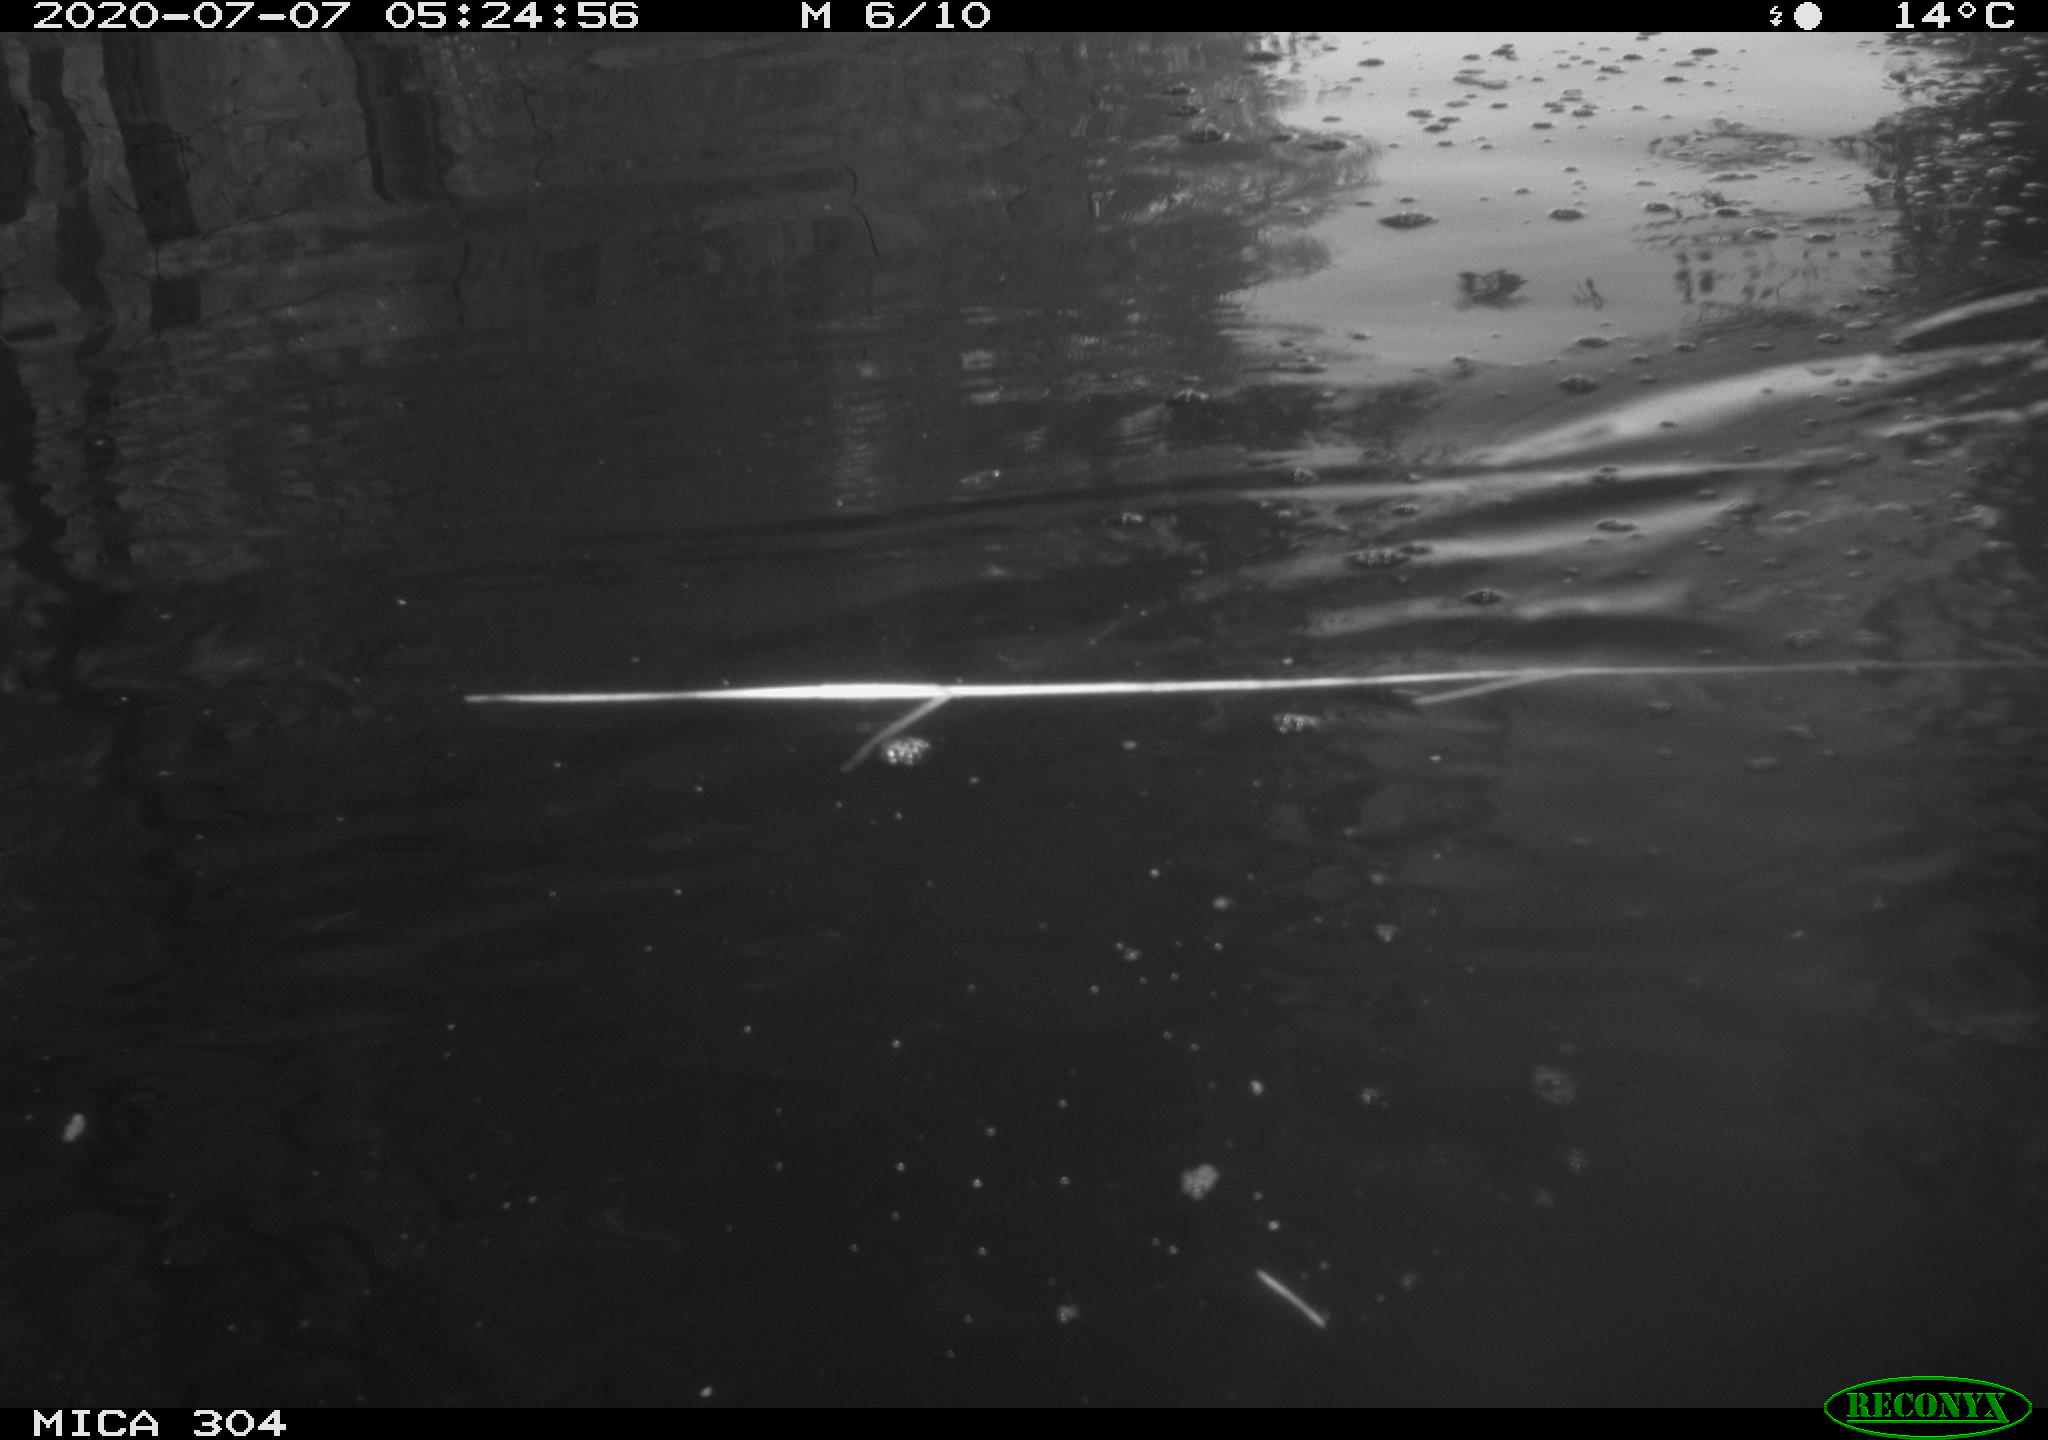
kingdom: Animalia
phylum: Chordata
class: Aves
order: Anseriformes
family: Anatidae
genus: Anas
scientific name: Anas platyrhynchos
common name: Mallard
